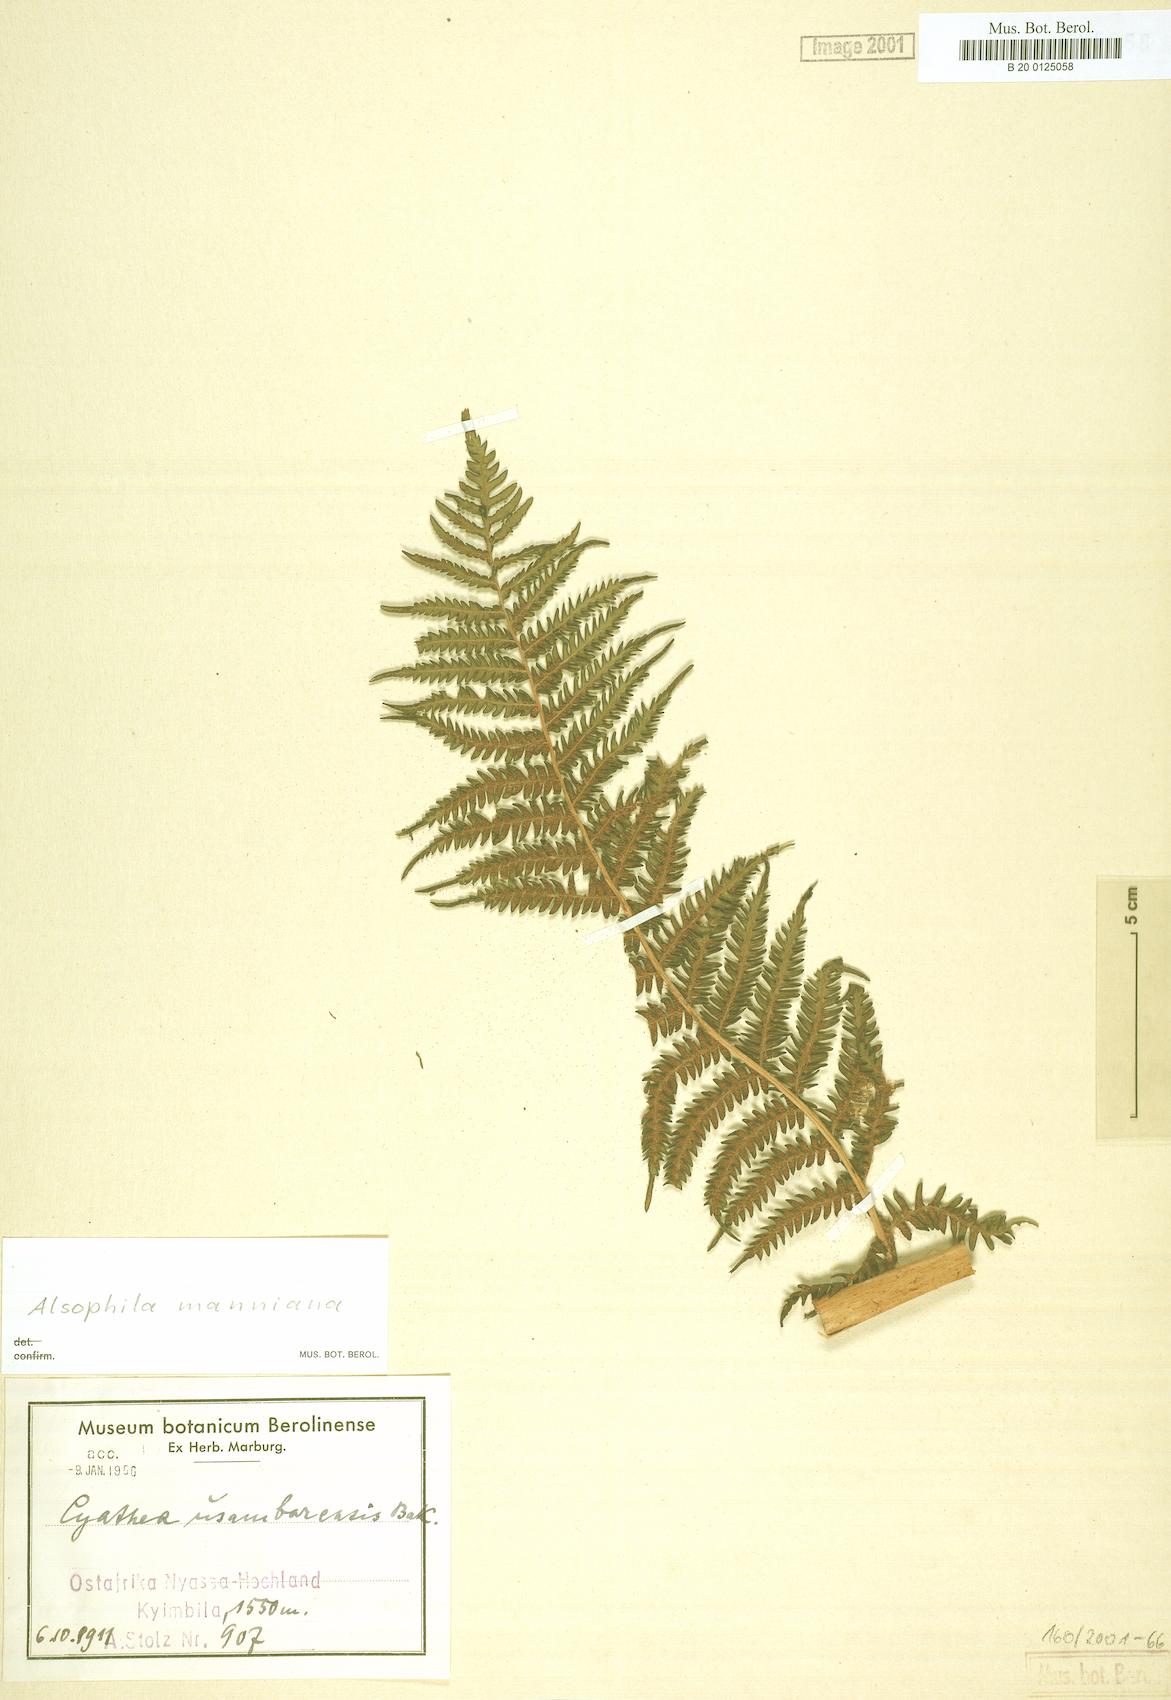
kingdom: Plantae
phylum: Tracheophyta
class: Polypodiopsida
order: Cyatheales
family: Cyatheaceae
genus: Alsophila
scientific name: Alsophila manniana
